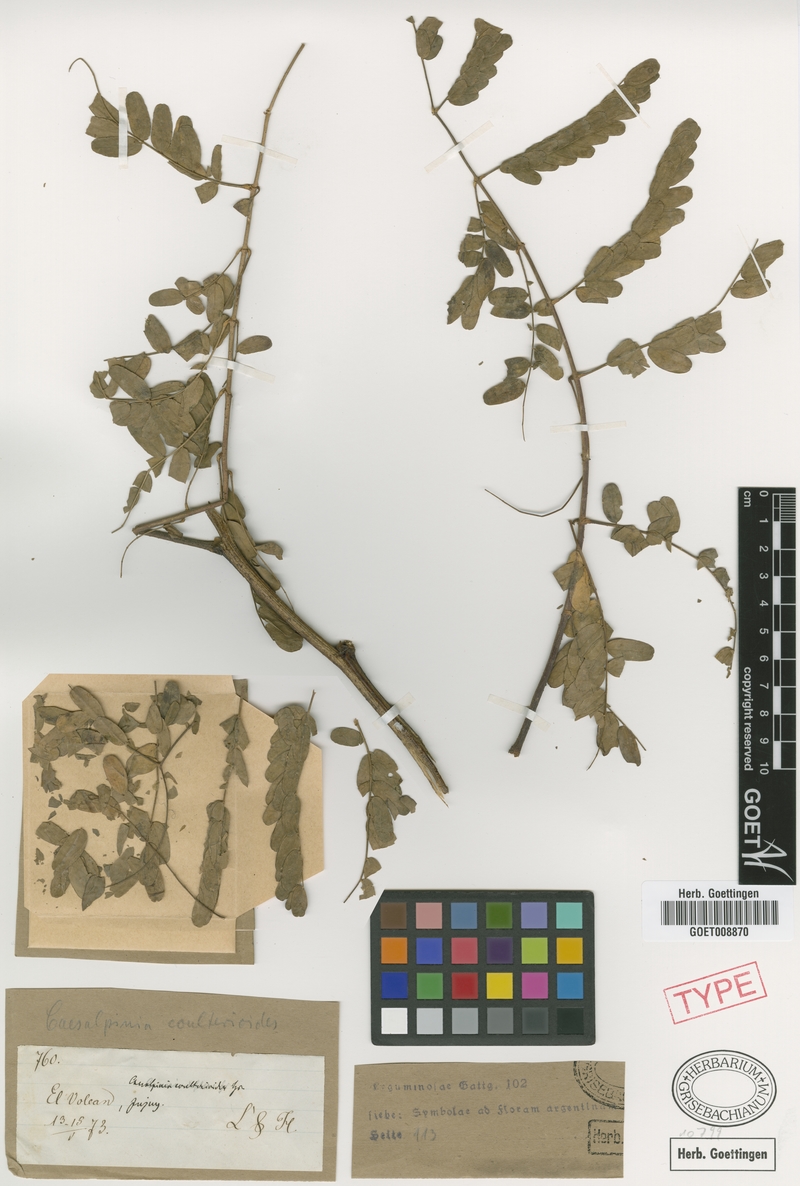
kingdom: Plantae
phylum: Tracheophyta
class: Magnoliopsida
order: Fabales
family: Fabaceae
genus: Erythrostemon
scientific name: Erythrostemon coulterioides
